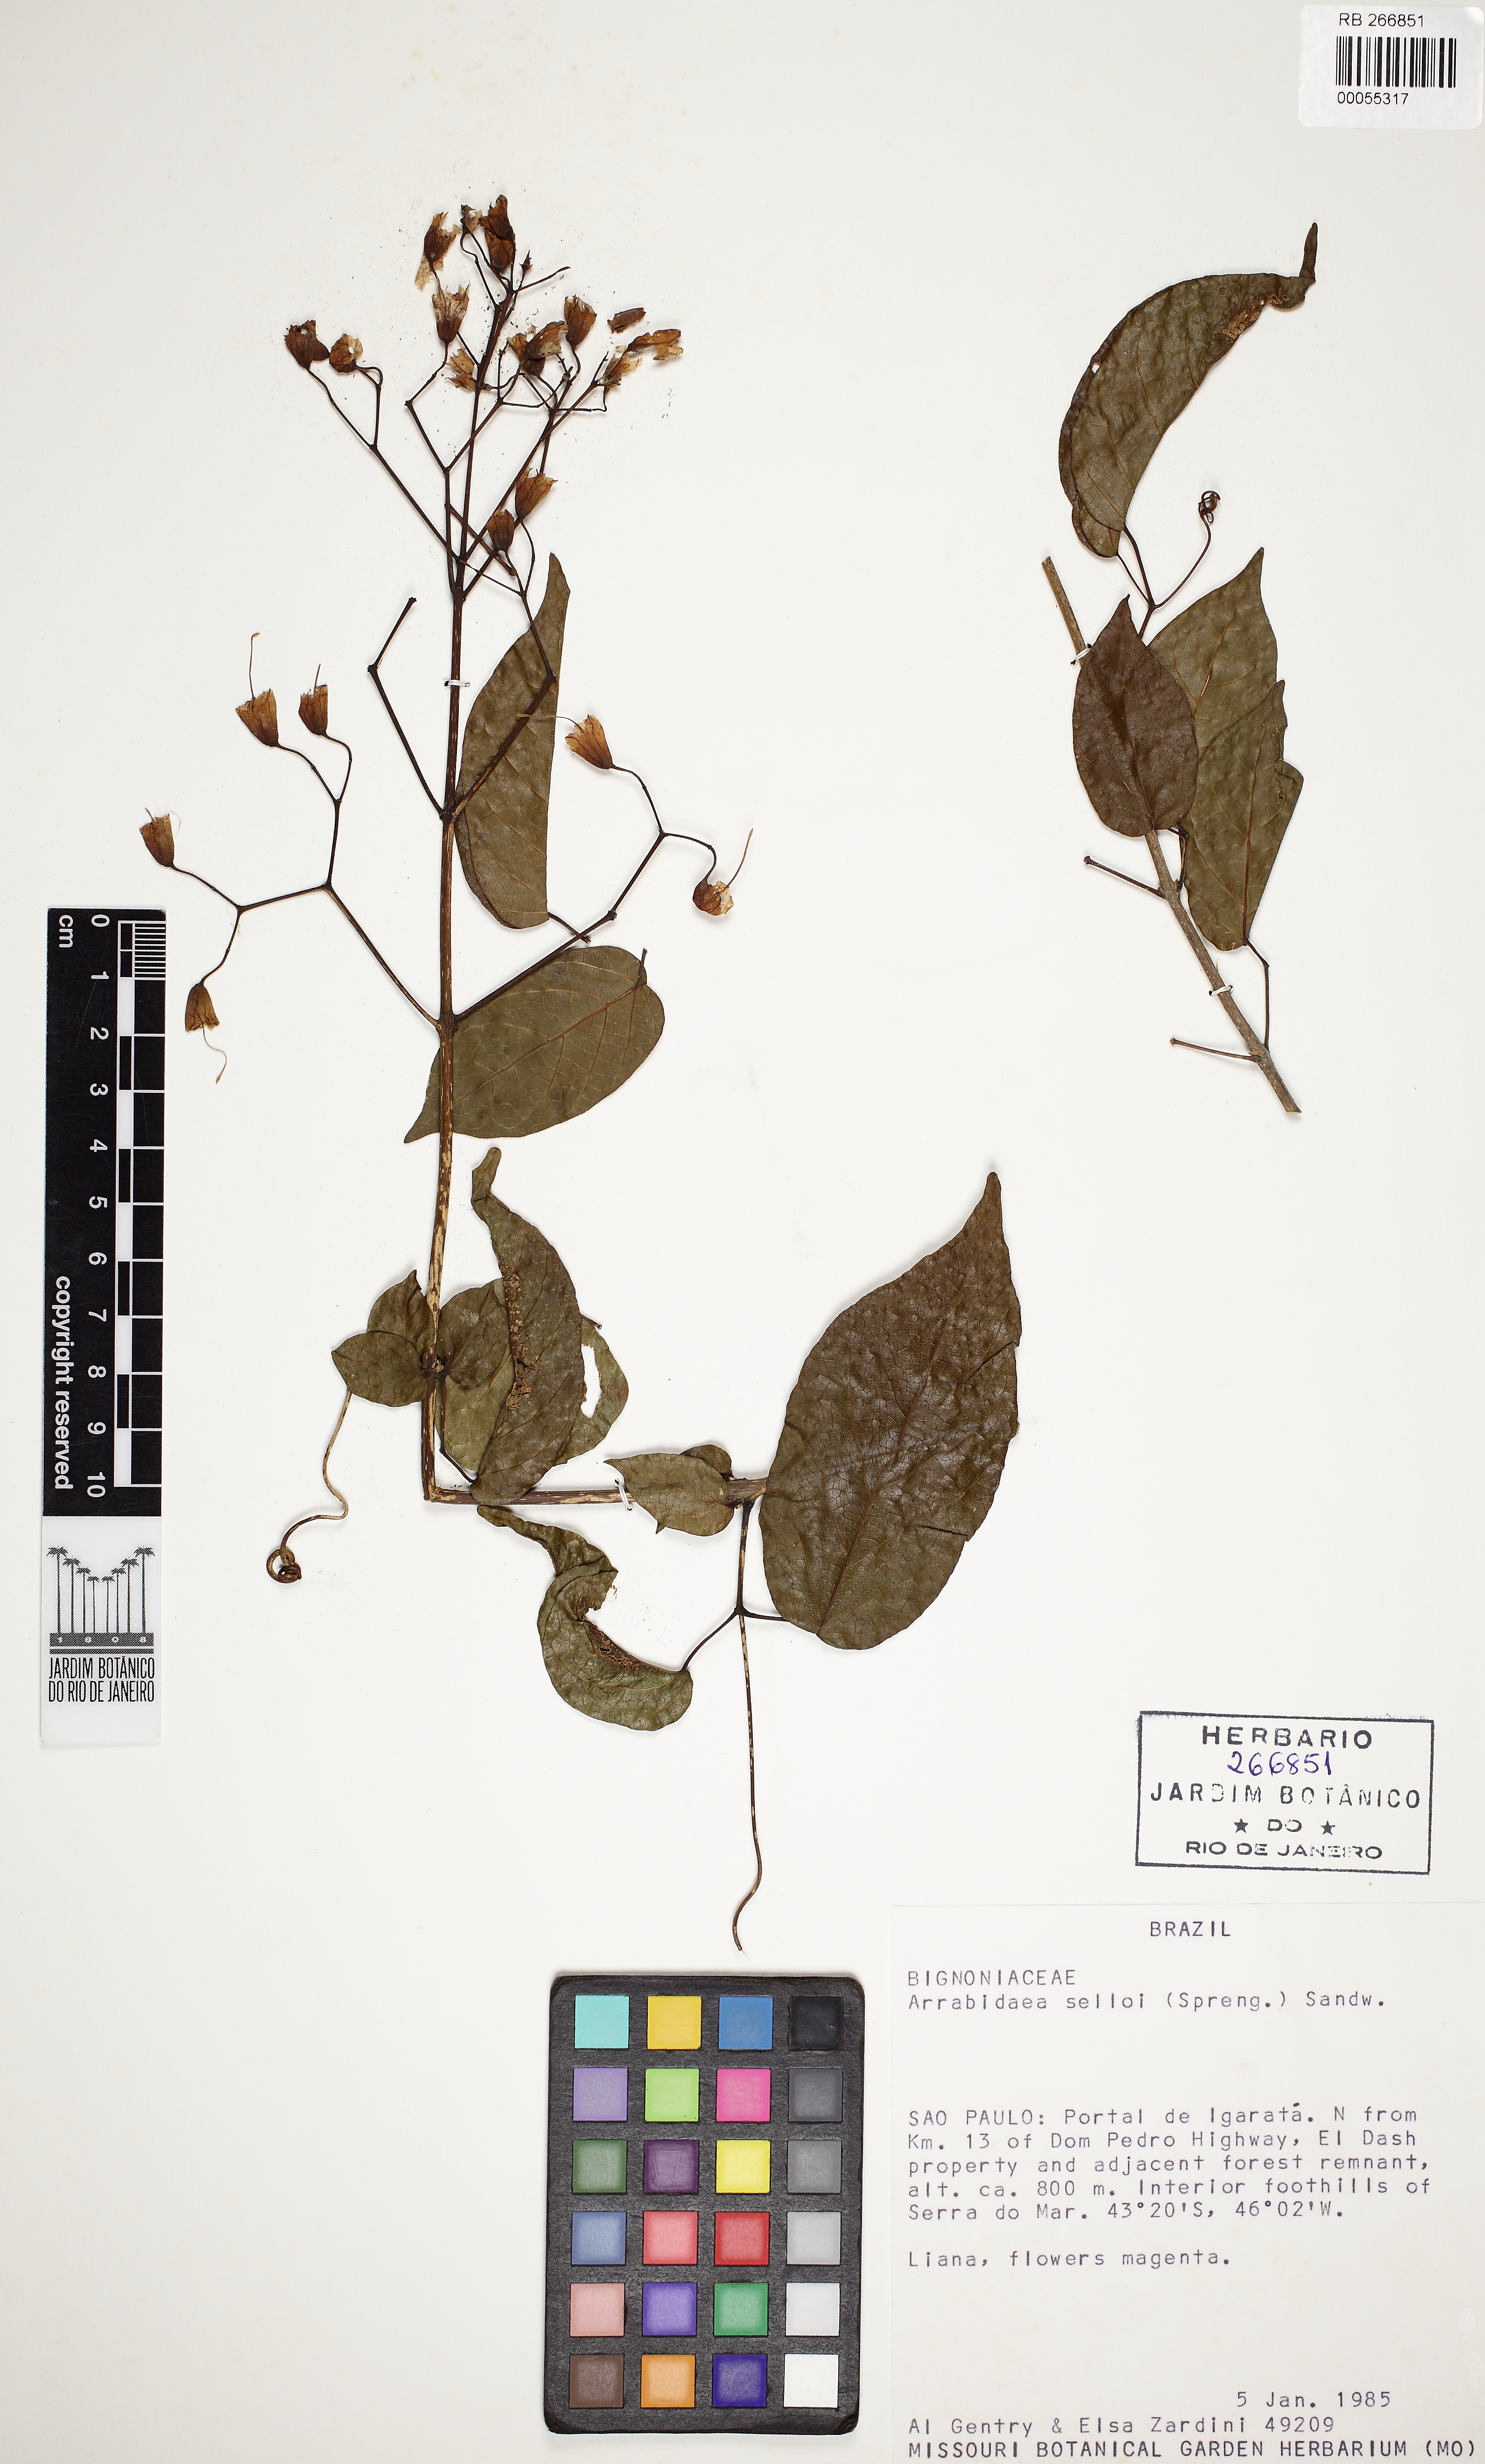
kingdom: Plantae
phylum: Tracheophyta
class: Magnoliopsida
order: Lamiales
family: Bignoniaceae
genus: Tanaecium
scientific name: Tanaecium selloi
